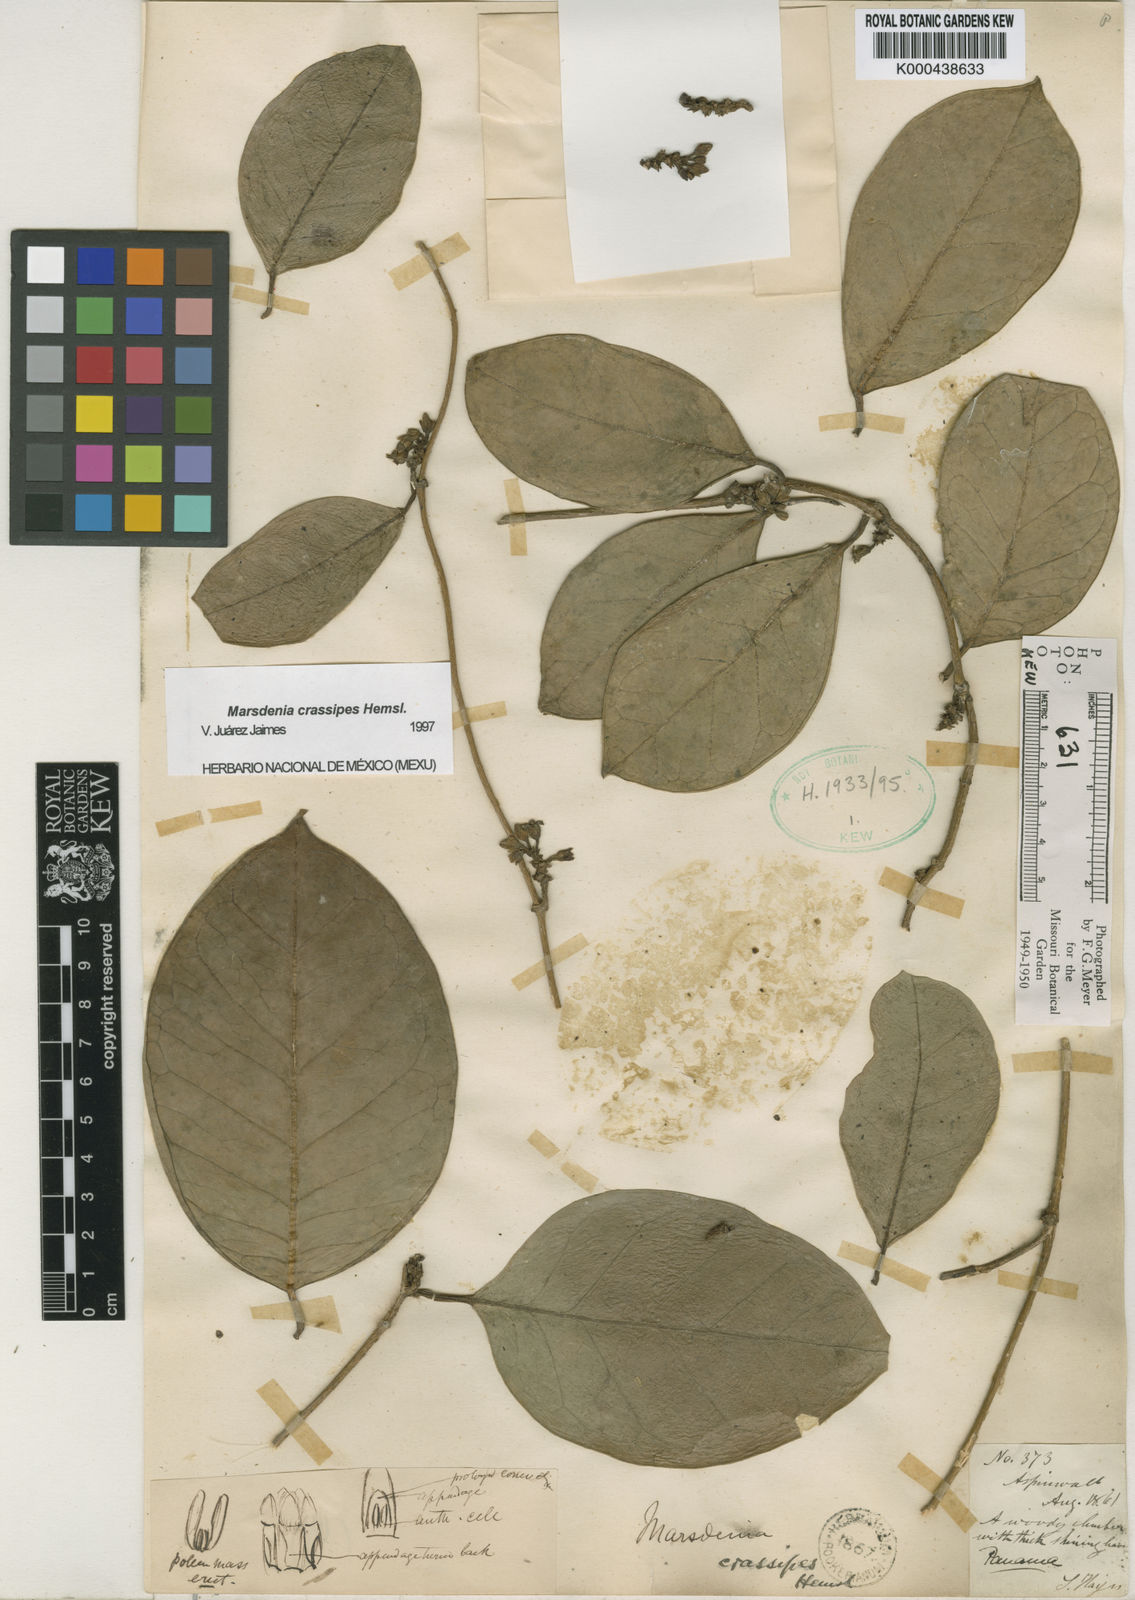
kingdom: Plantae
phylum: Tracheophyta
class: Magnoliopsida
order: Gentianales
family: Apocynaceae
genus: Ruehssia
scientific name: Ruehssia crassipes
